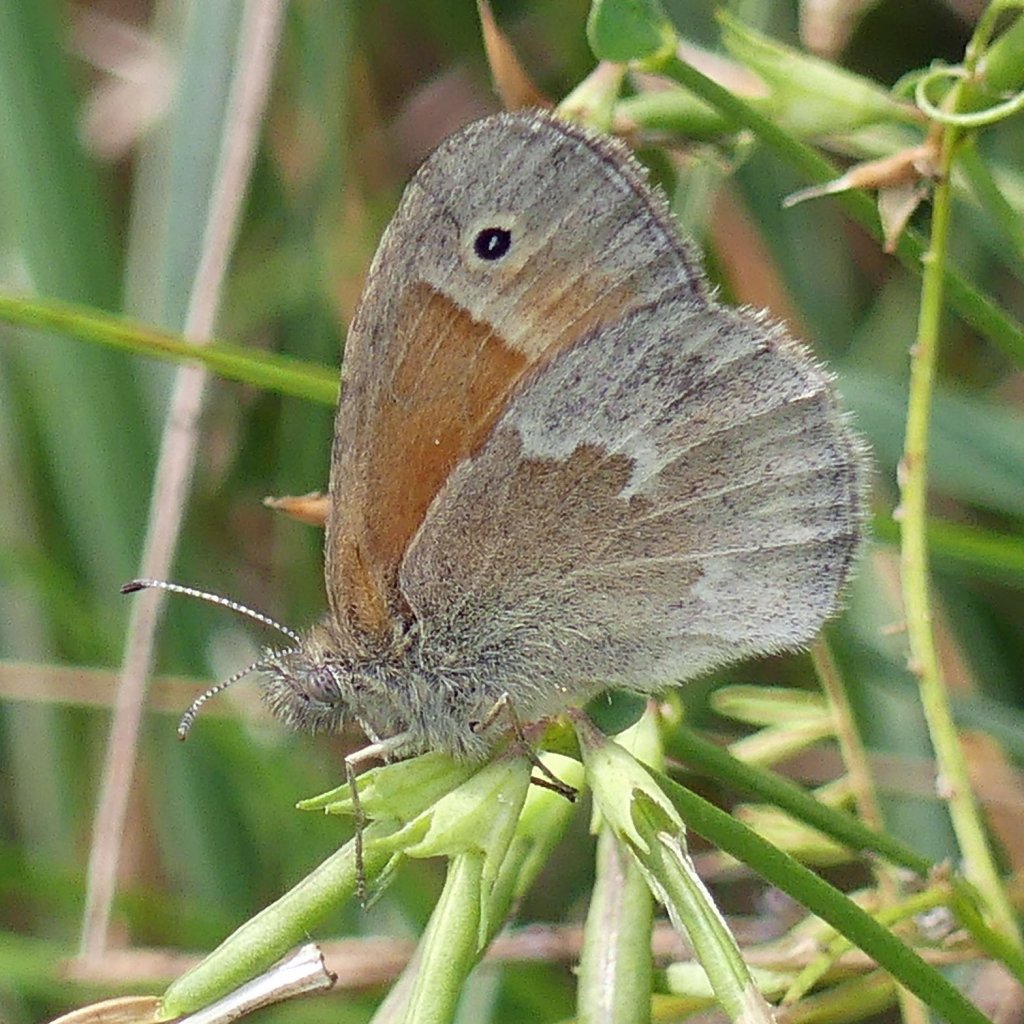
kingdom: Animalia
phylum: Arthropoda
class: Insecta
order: Lepidoptera
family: Nymphalidae
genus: Coenonympha
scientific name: Coenonympha tullia
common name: Large Heath
